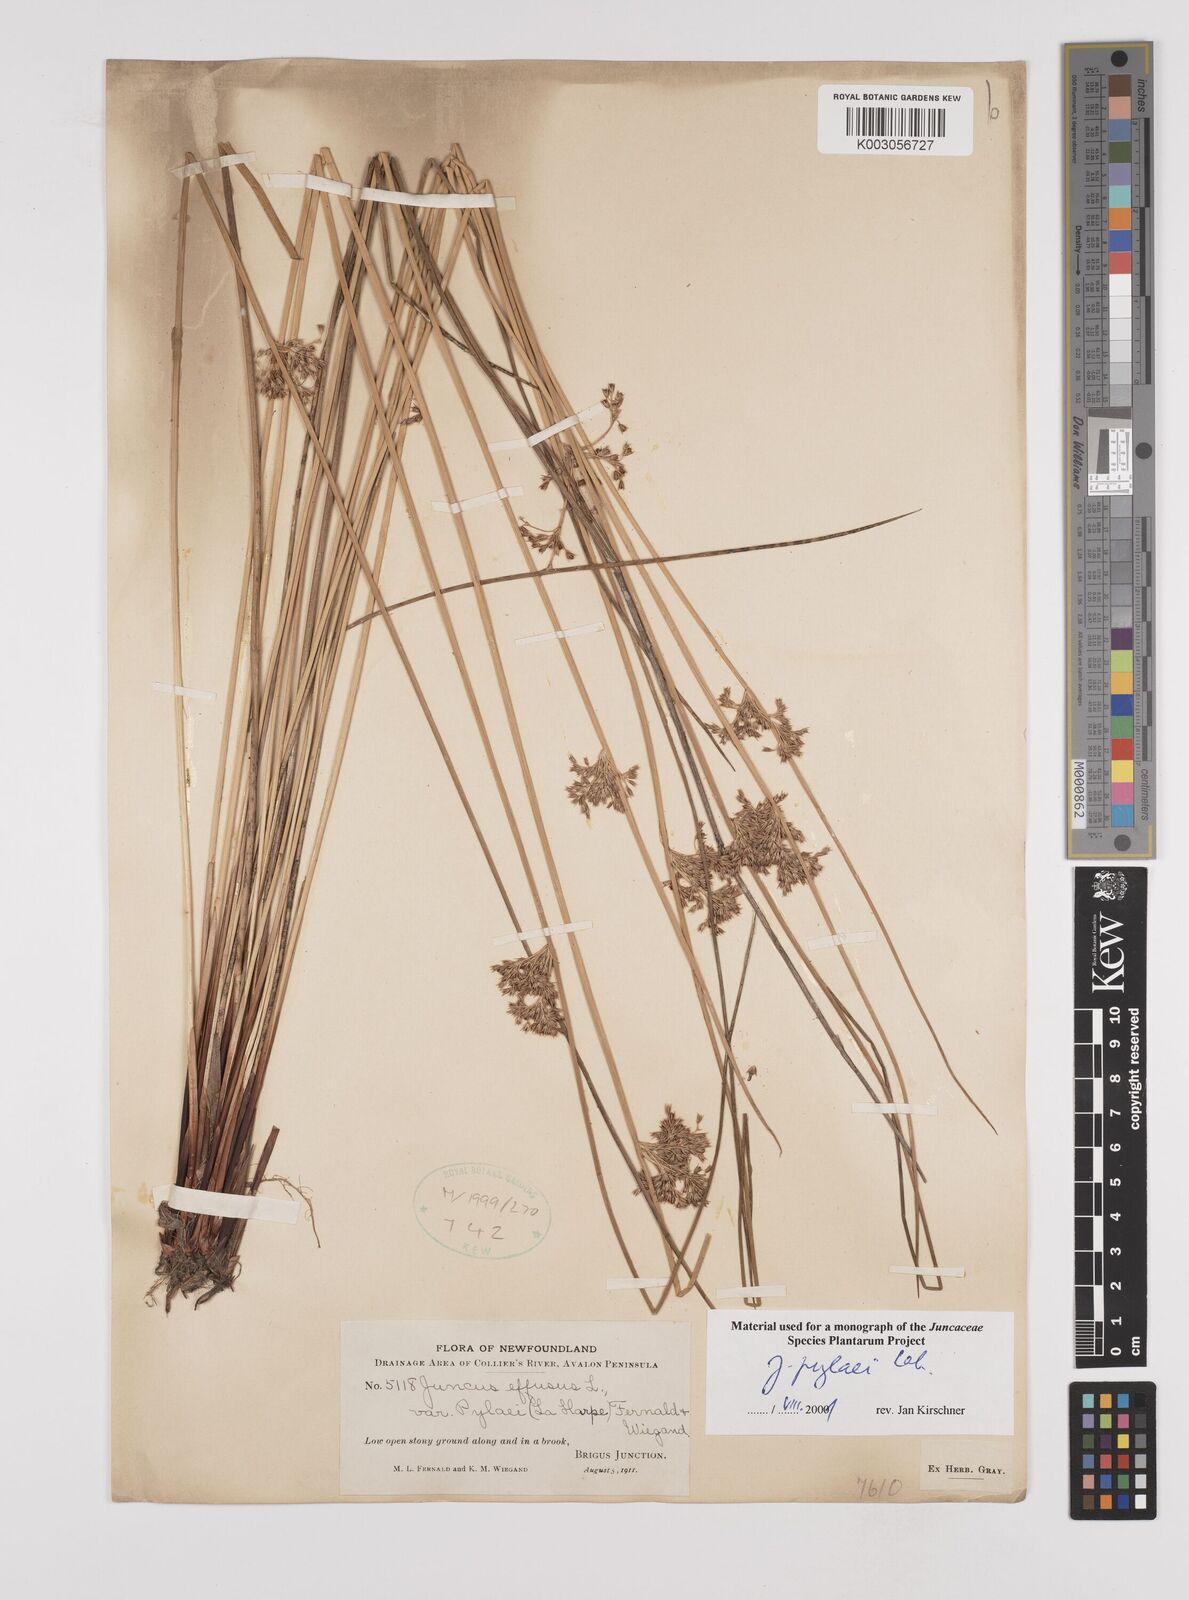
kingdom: Plantae
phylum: Tracheophyta
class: Liliopsida
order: Poales
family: Juncaceae
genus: Juncus
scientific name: Juncus effusus
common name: Soft rush
